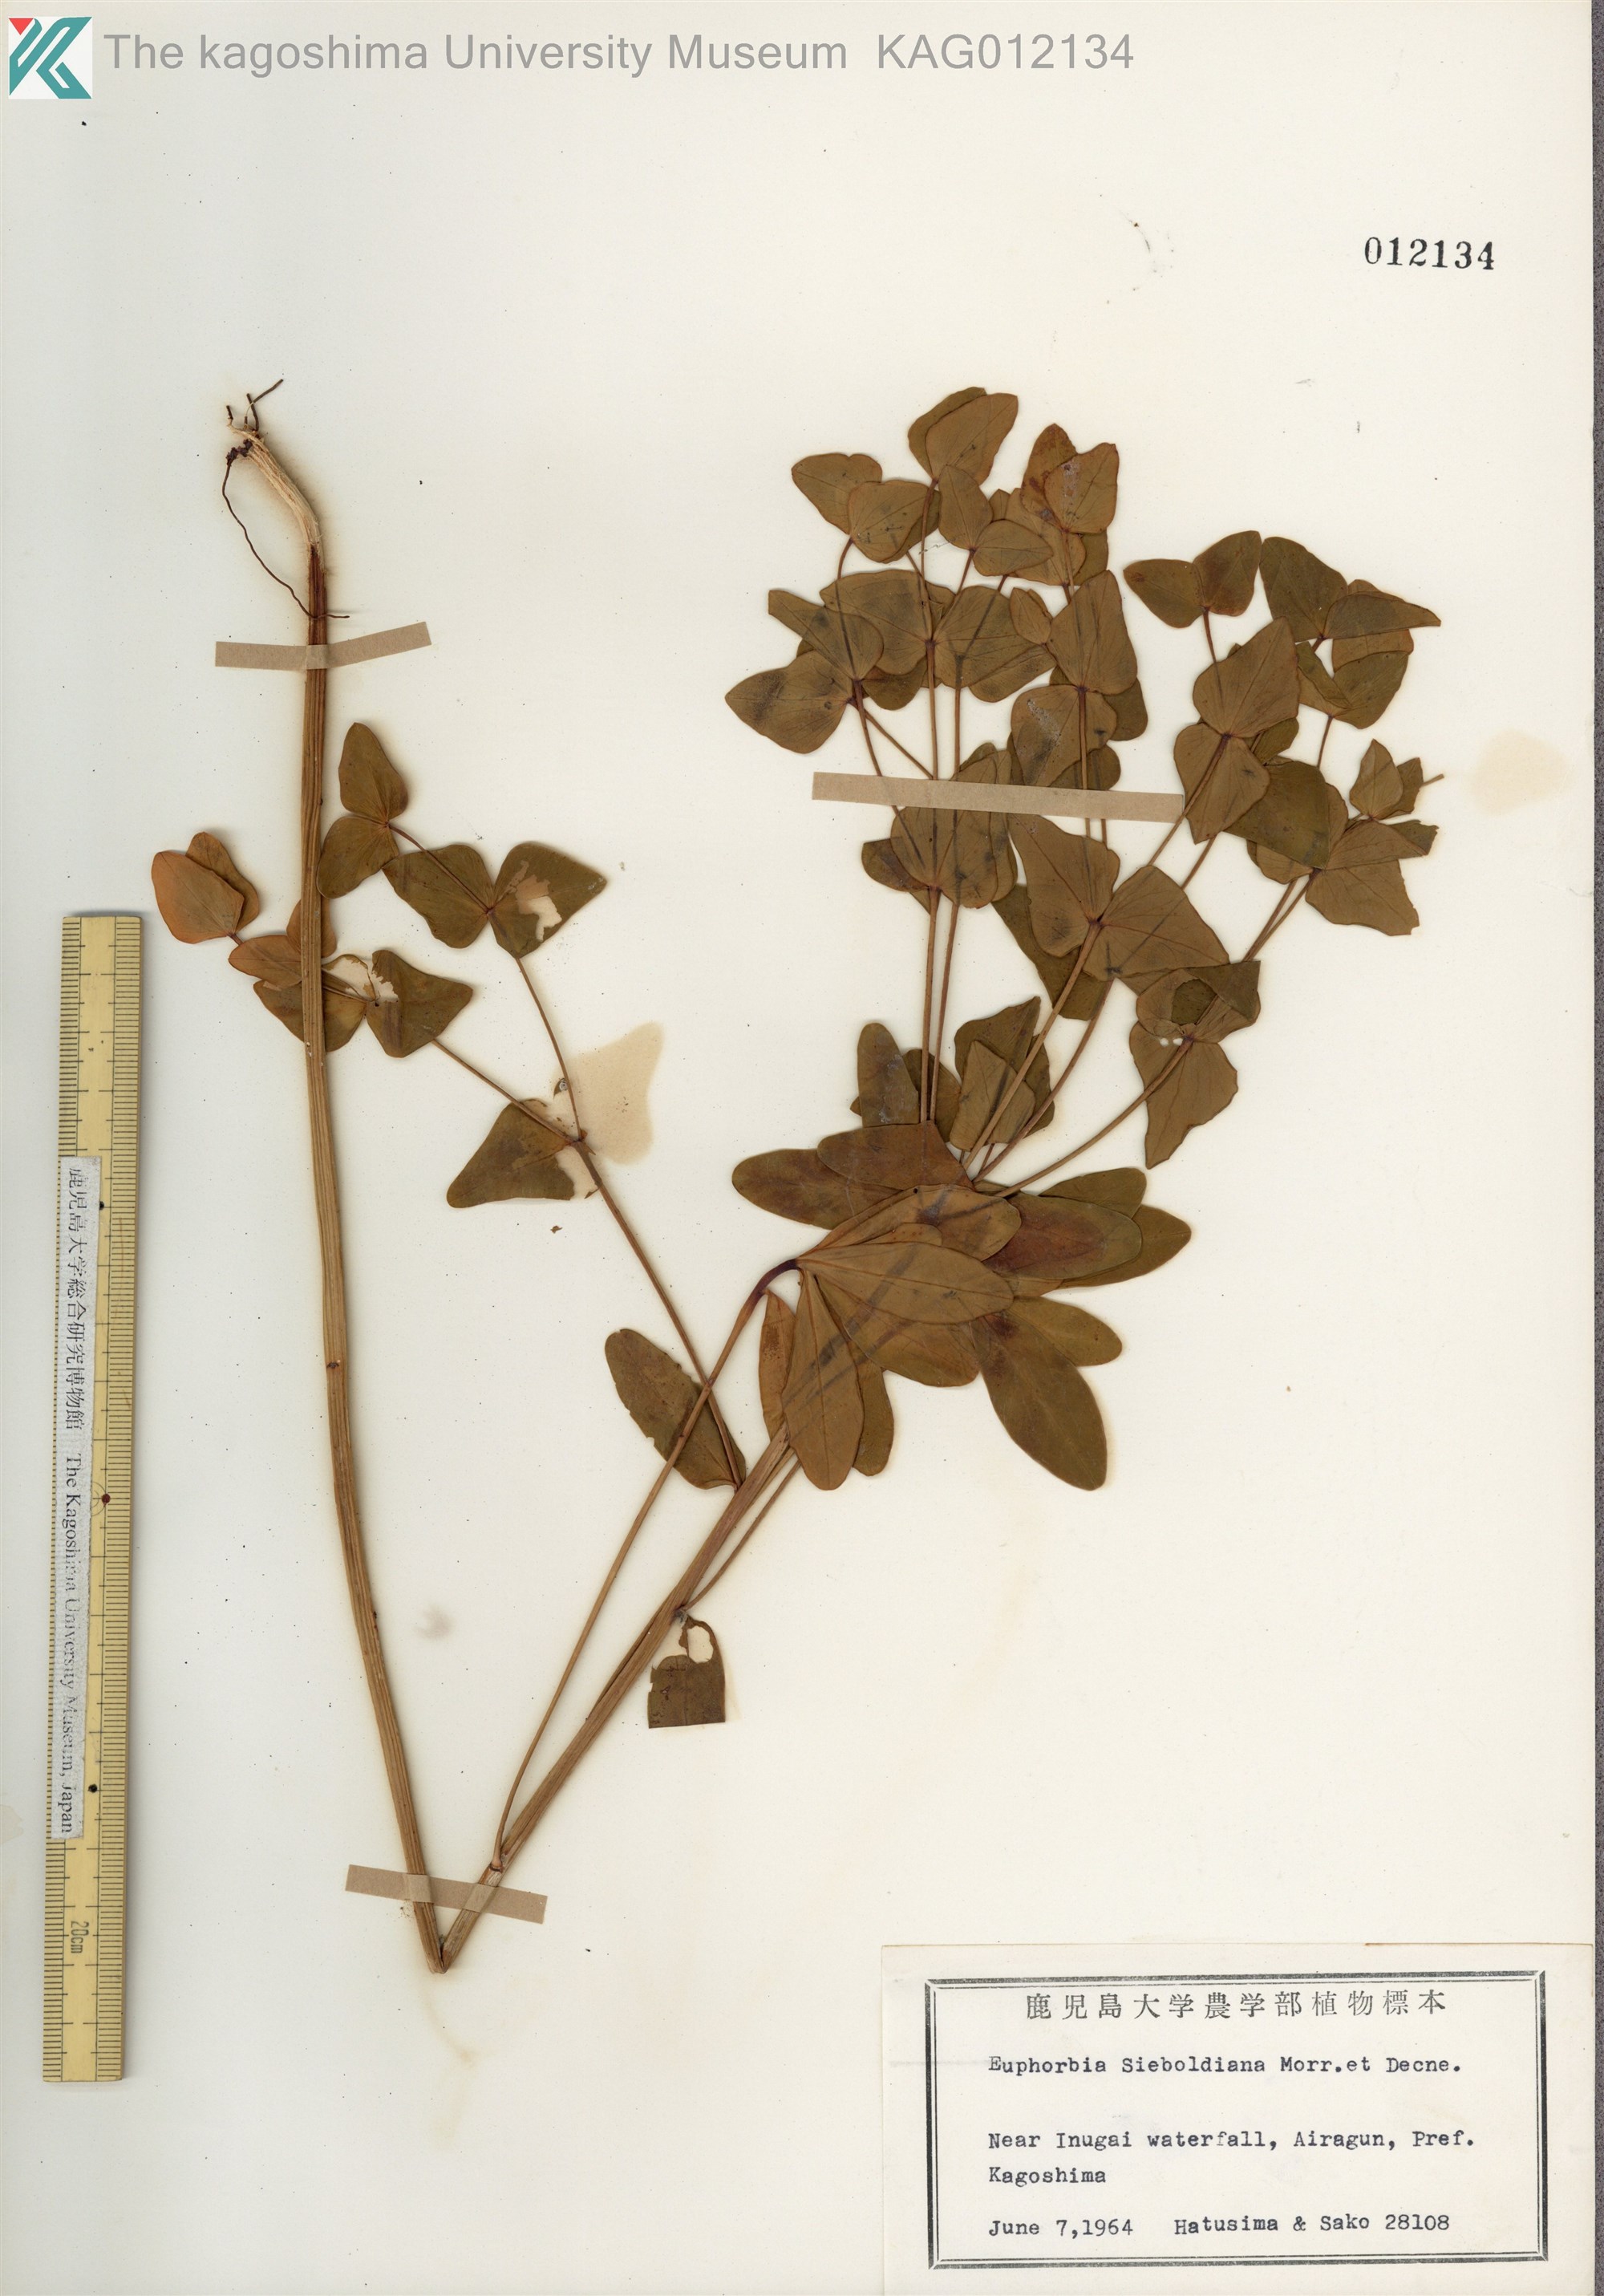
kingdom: Plantae
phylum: Tracheophyta
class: Magnoliopsida
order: Malpighiales
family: Euphorbiaceae
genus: Euphorbia
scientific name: Euphorbia sieboldiana
